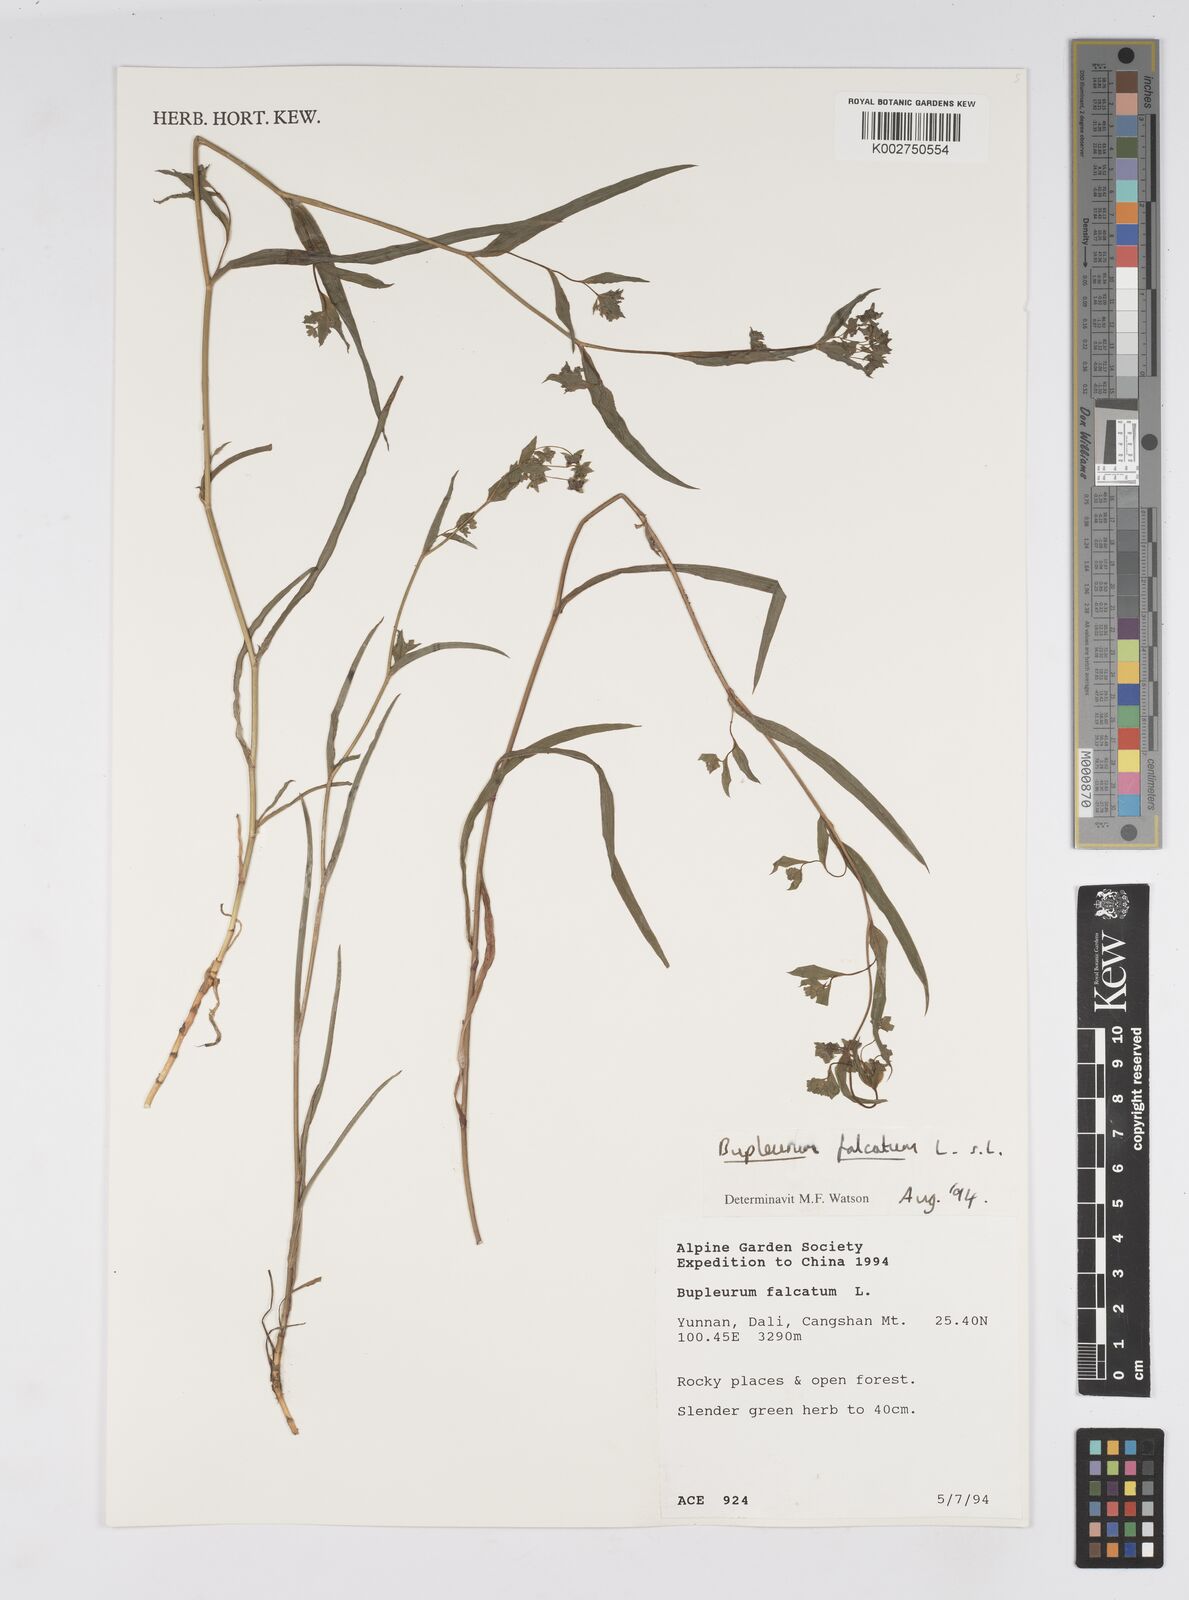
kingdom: Plantae
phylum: Tracheophyta
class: Magnoliopsida
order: Apiales
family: Apiaceae
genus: Bupleurum
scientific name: Bupleurum falcatum
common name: Sickle-leaved hare's-ear
